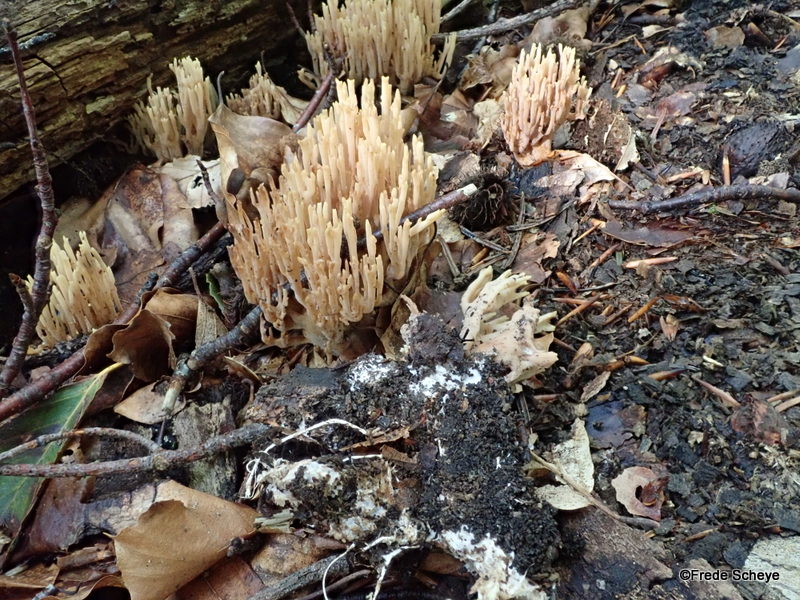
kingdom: Fungi
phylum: Basidiomycota
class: Agaricomycetes
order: Gomphales
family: Gomphaceae
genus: Ramaria
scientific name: Ramaria stricta
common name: rank koralsvamp
